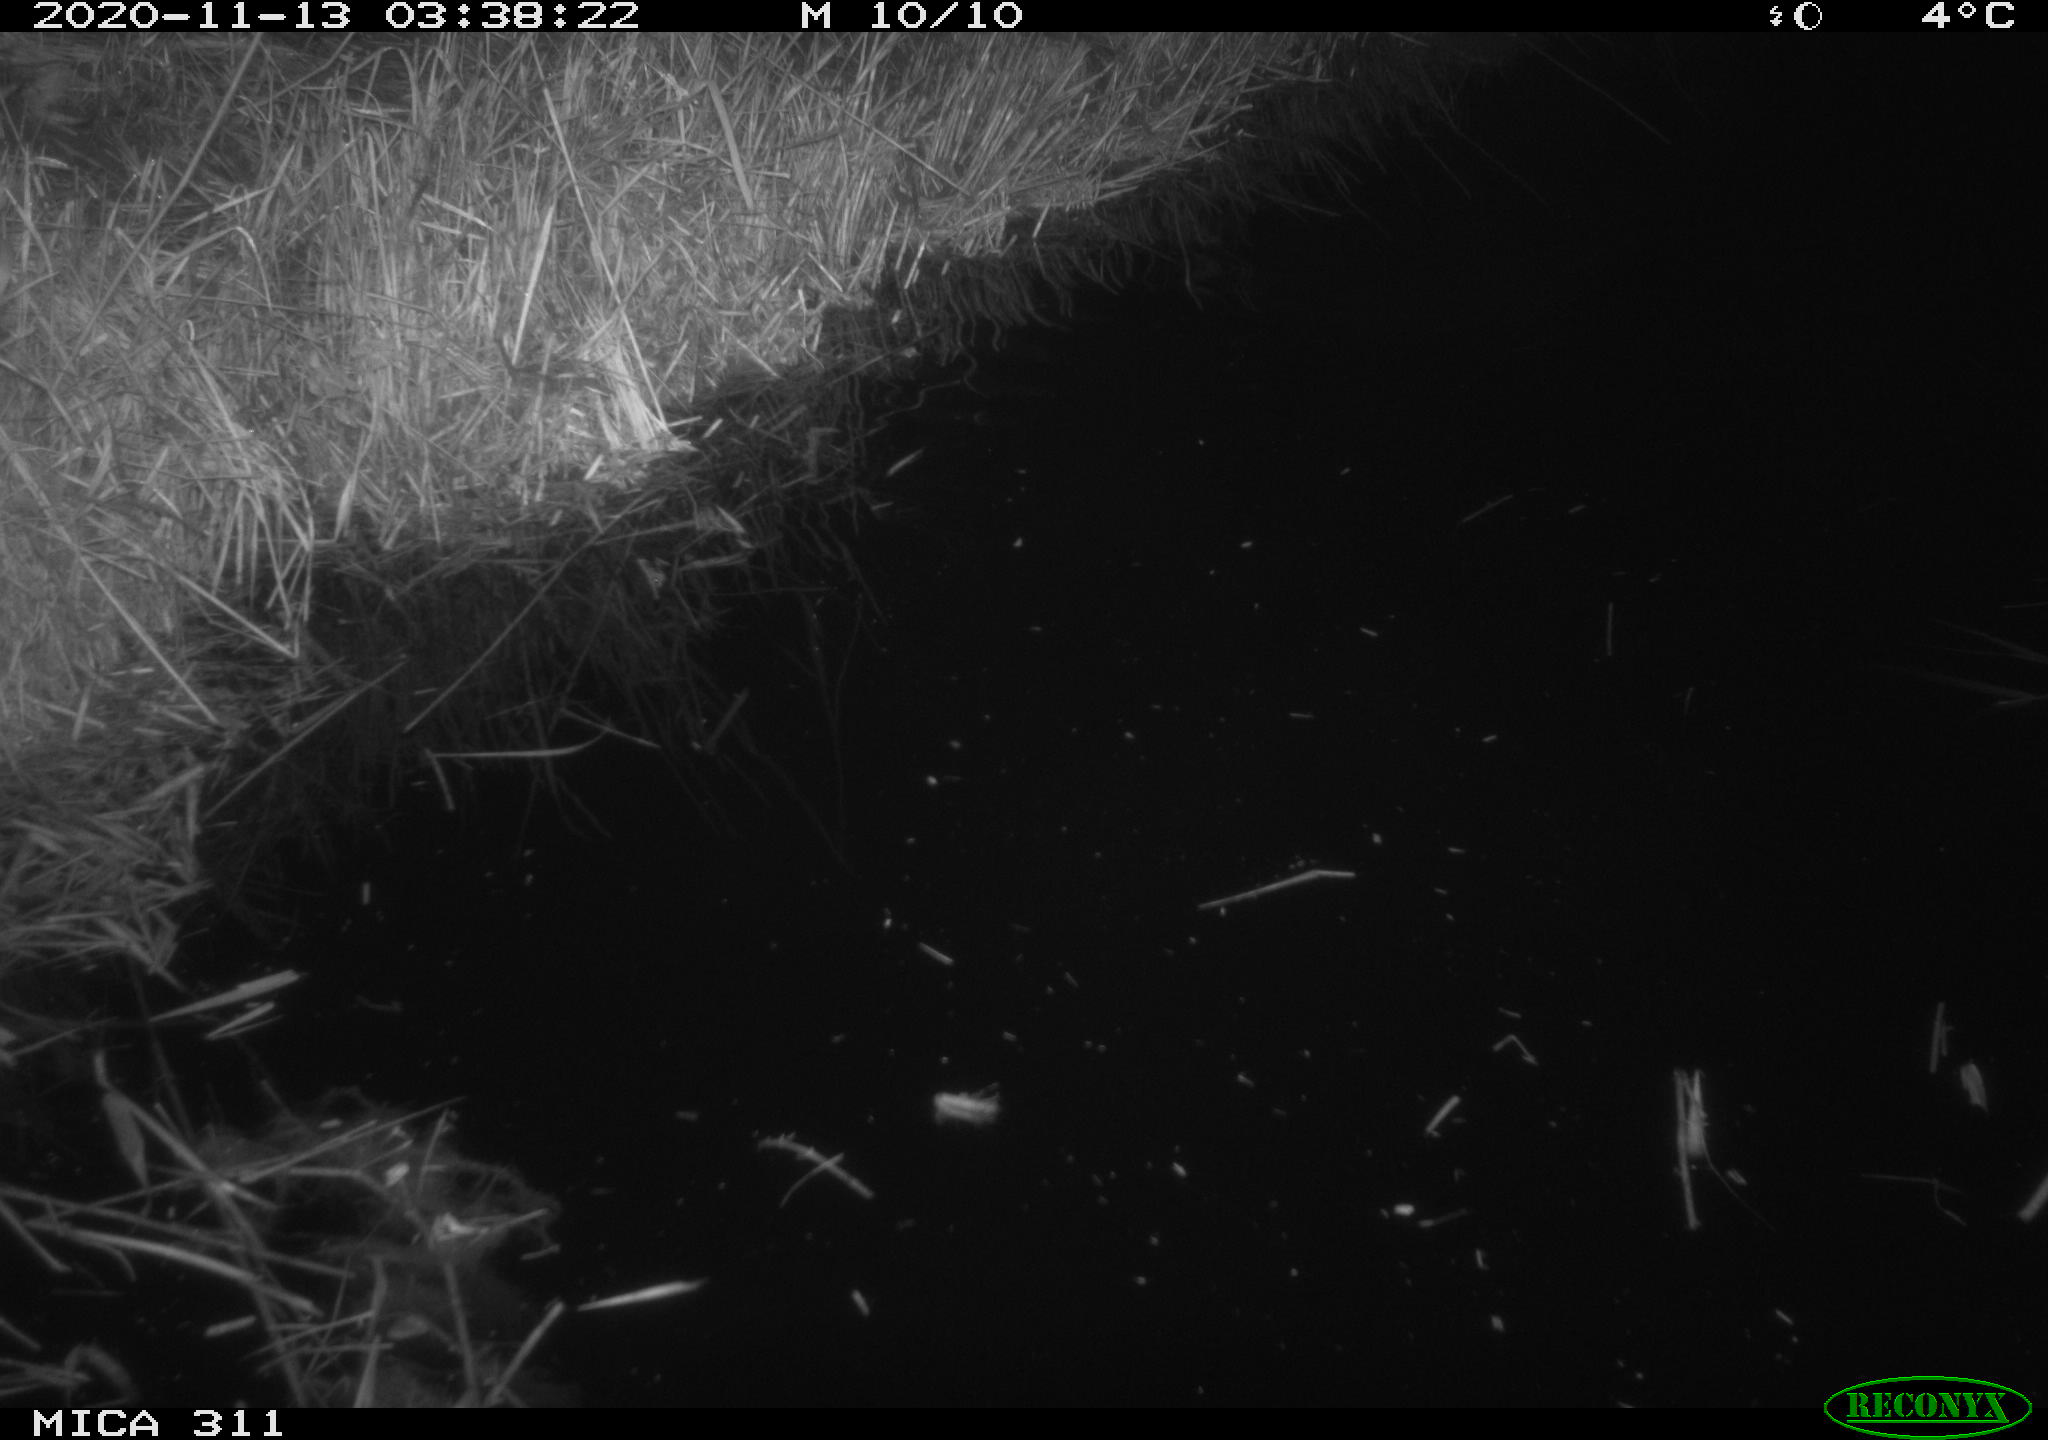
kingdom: Animalia
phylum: Chordata
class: Mammalia
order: Rodentia
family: Muridae
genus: Rattus
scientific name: Rattus norvegicus
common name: Brown rat
